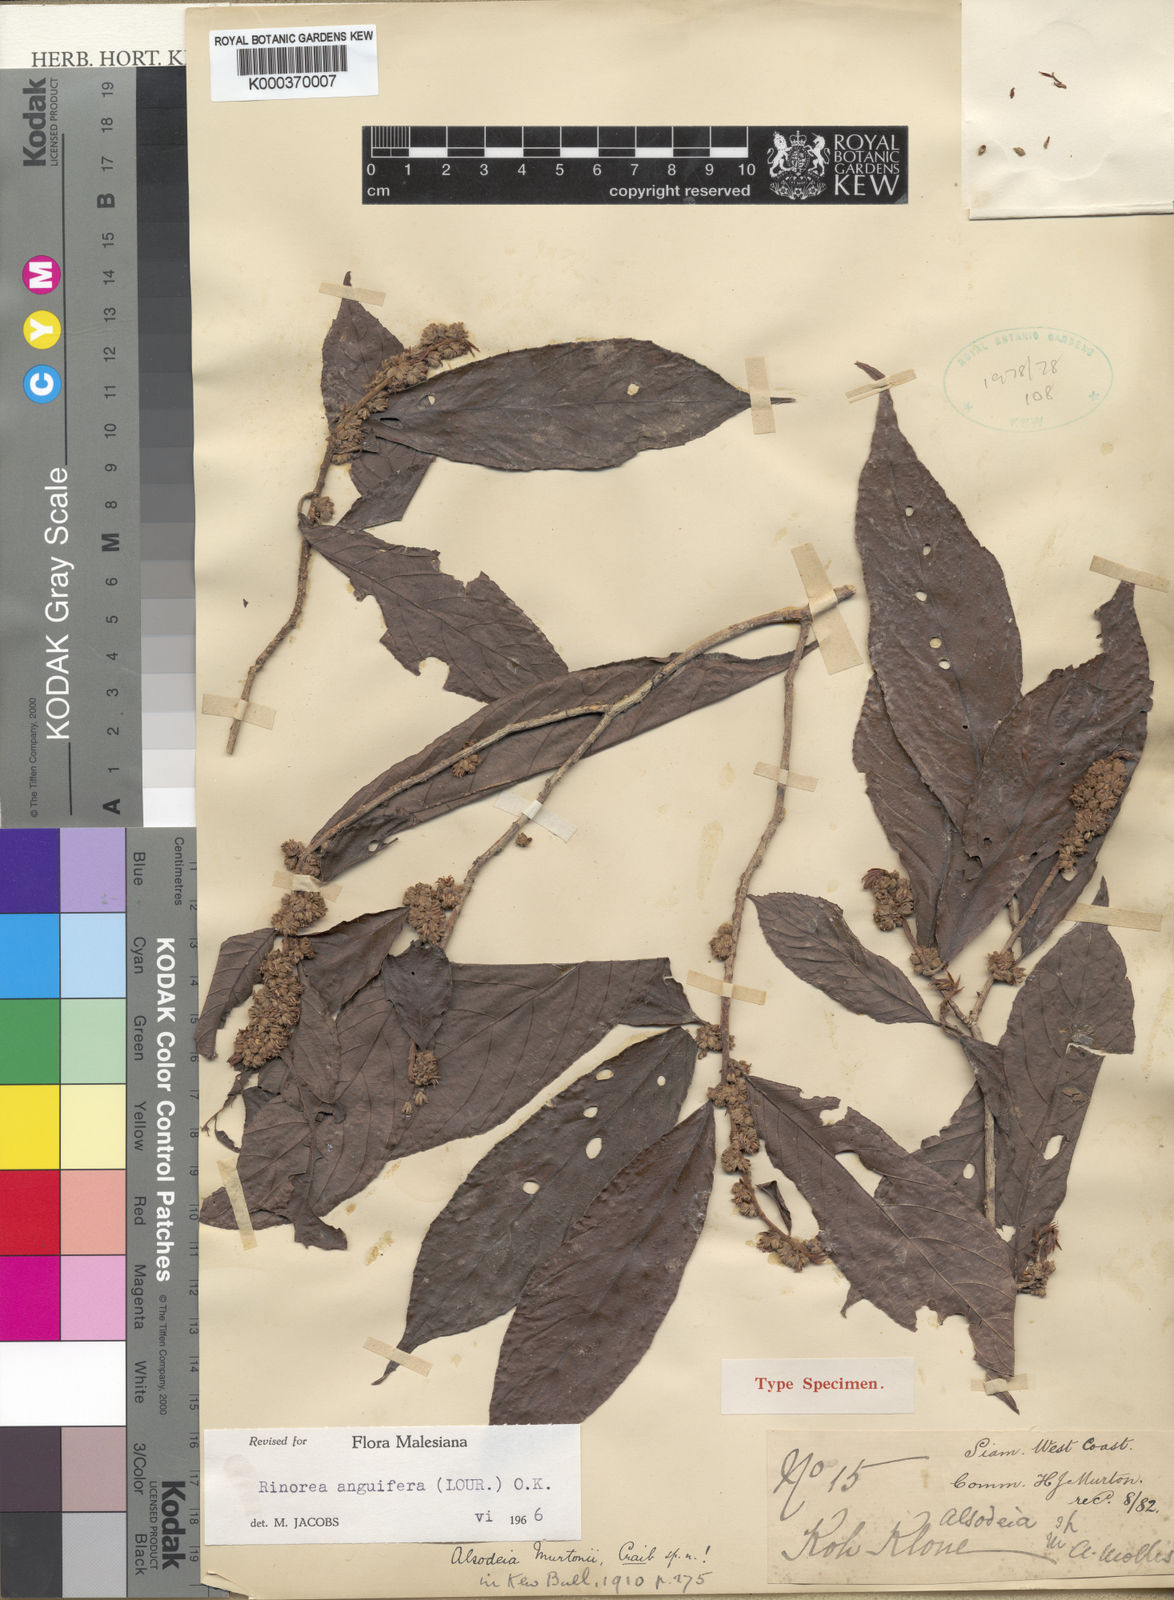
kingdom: Plantae
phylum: Tracheophyta
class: Magnoliopsida
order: Malpighiales
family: Violaceae
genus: Rinorea
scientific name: Rinorea anguifera
